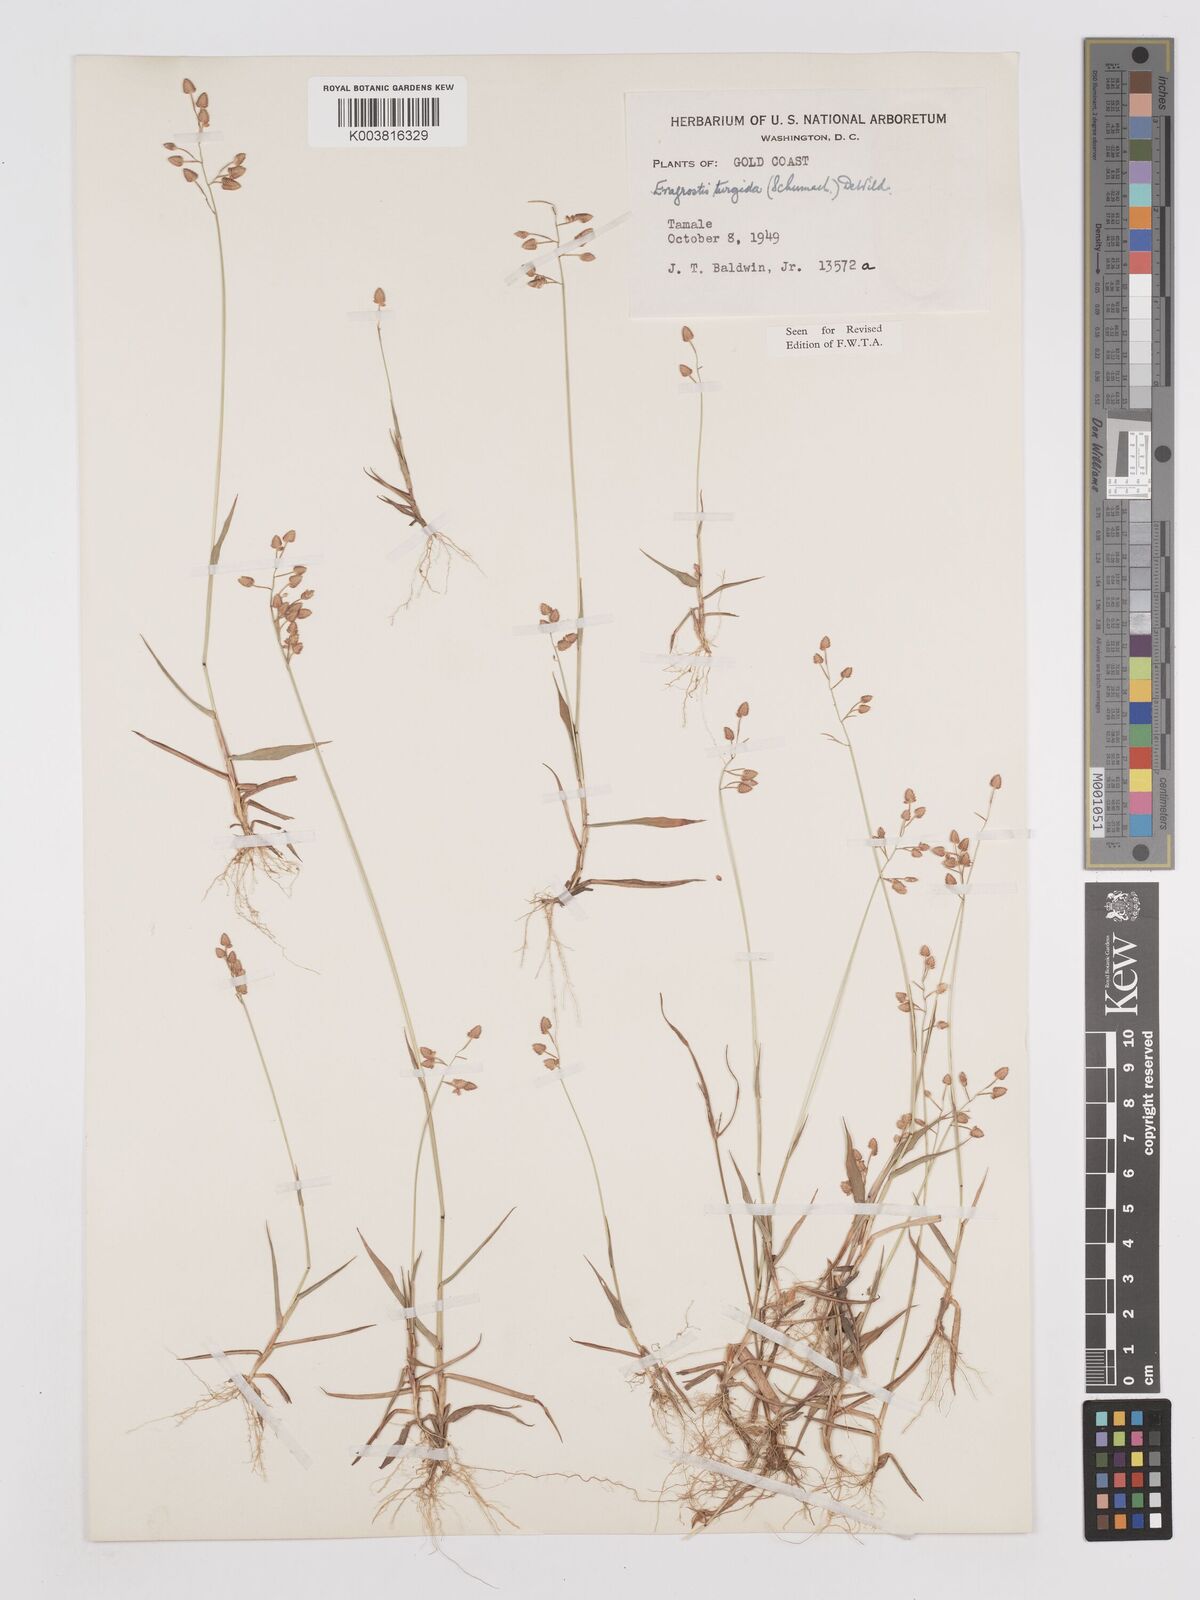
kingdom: Plantae
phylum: Tracheophyta
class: Liliopsida
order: Poales
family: Poaceae
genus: Eragrostis
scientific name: Eragrostis turgida
